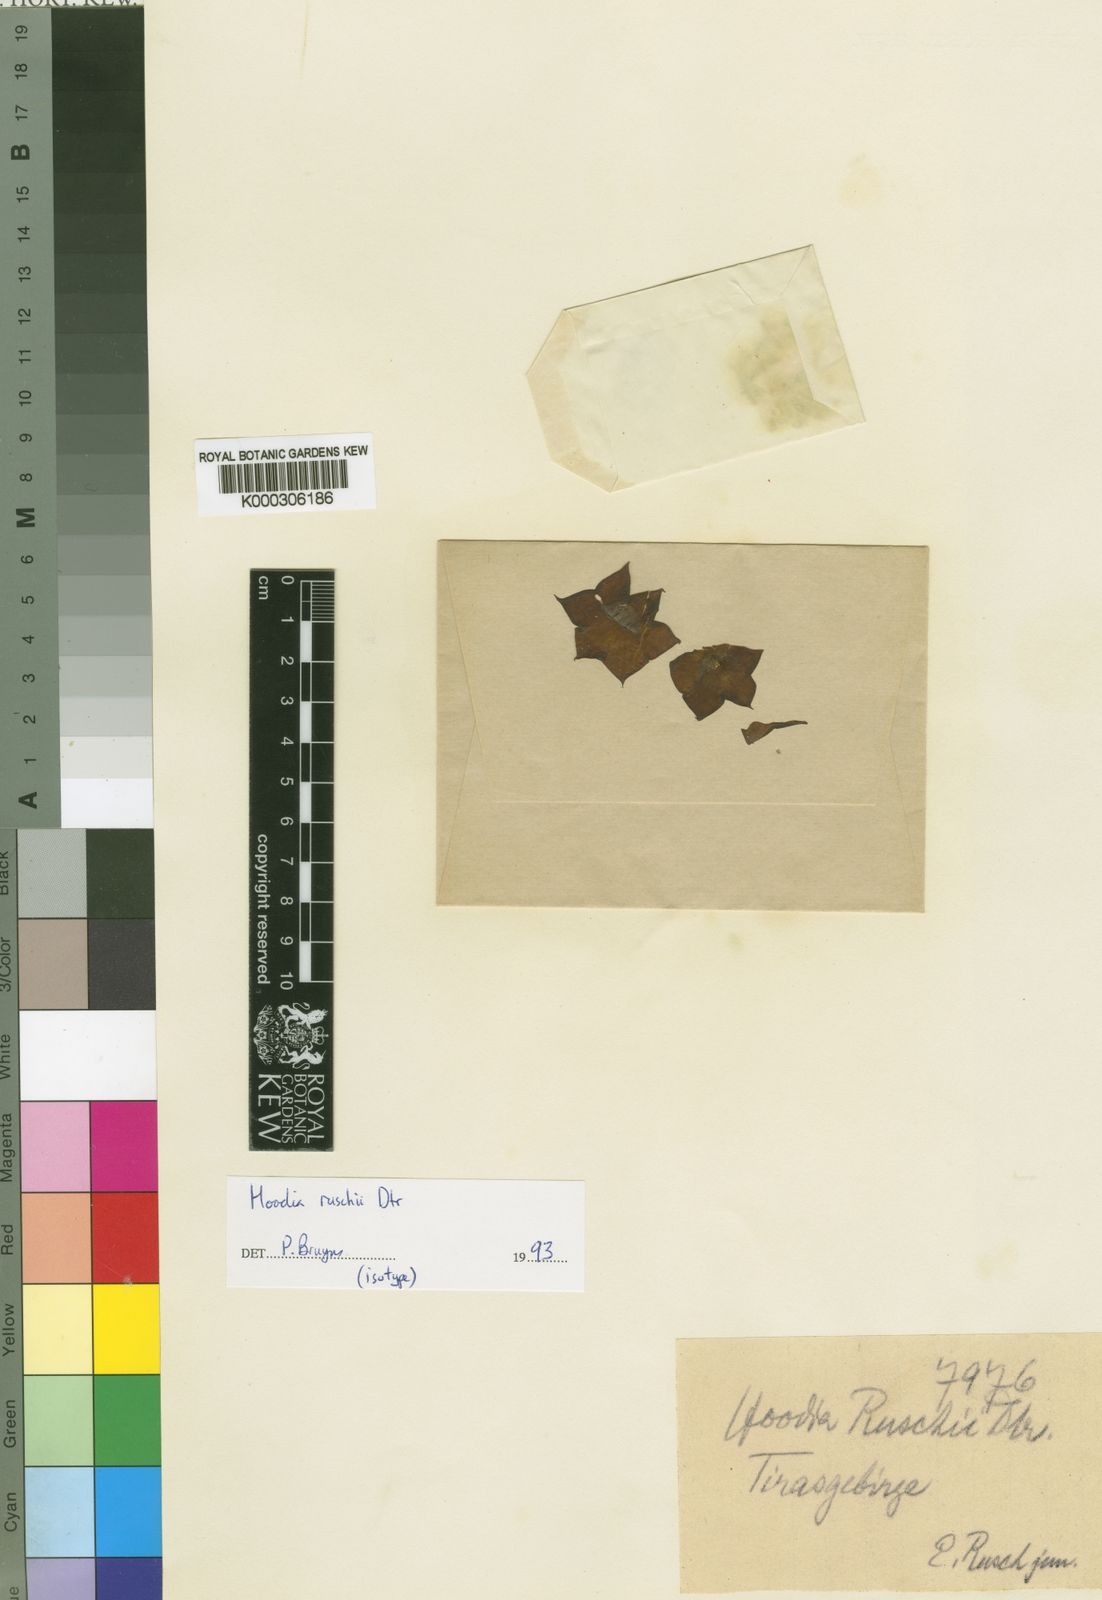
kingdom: Plantae
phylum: Tracheophyta
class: Magnoliopsida
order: Gentianales
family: Apocynaceae
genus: Ceropegia
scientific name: Ceropegia ruschii
